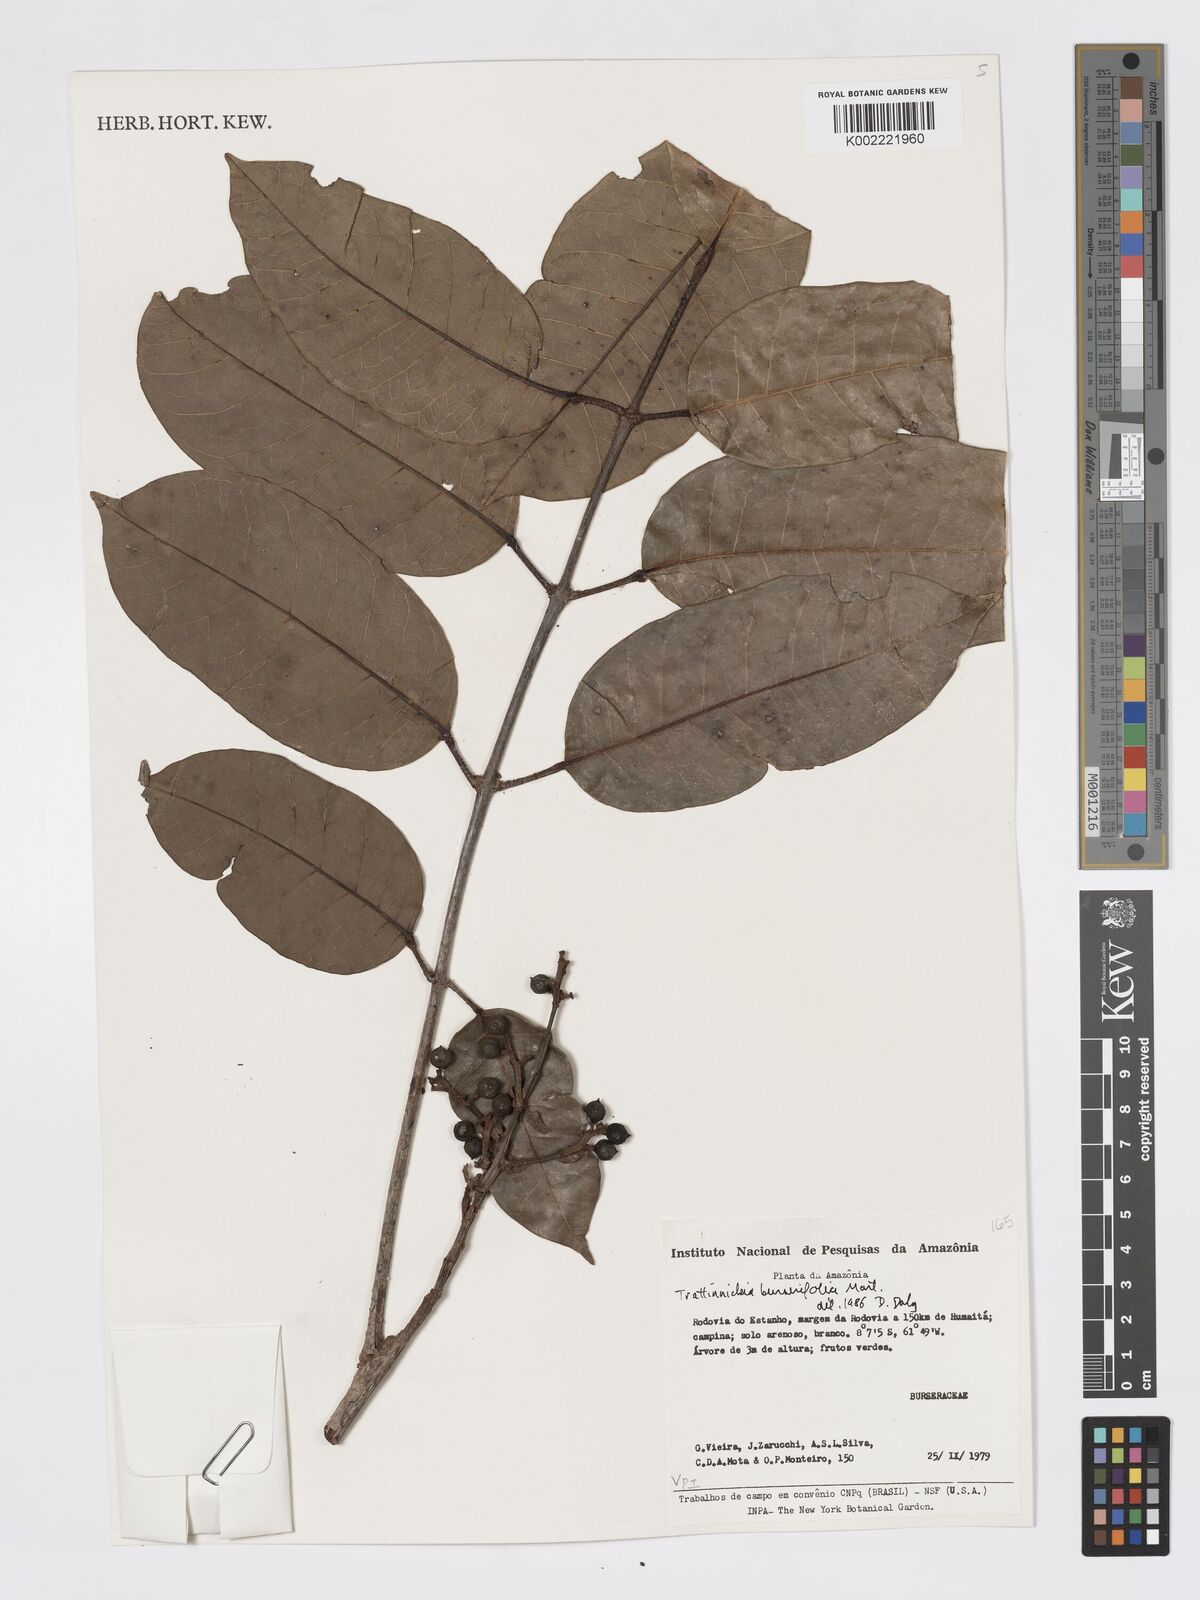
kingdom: Plantae
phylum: Tracheophyta
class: Magnoliopsida
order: Sapindales
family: Burseraceae
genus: Trattinnickia
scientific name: Trattinnickia burserifolia
